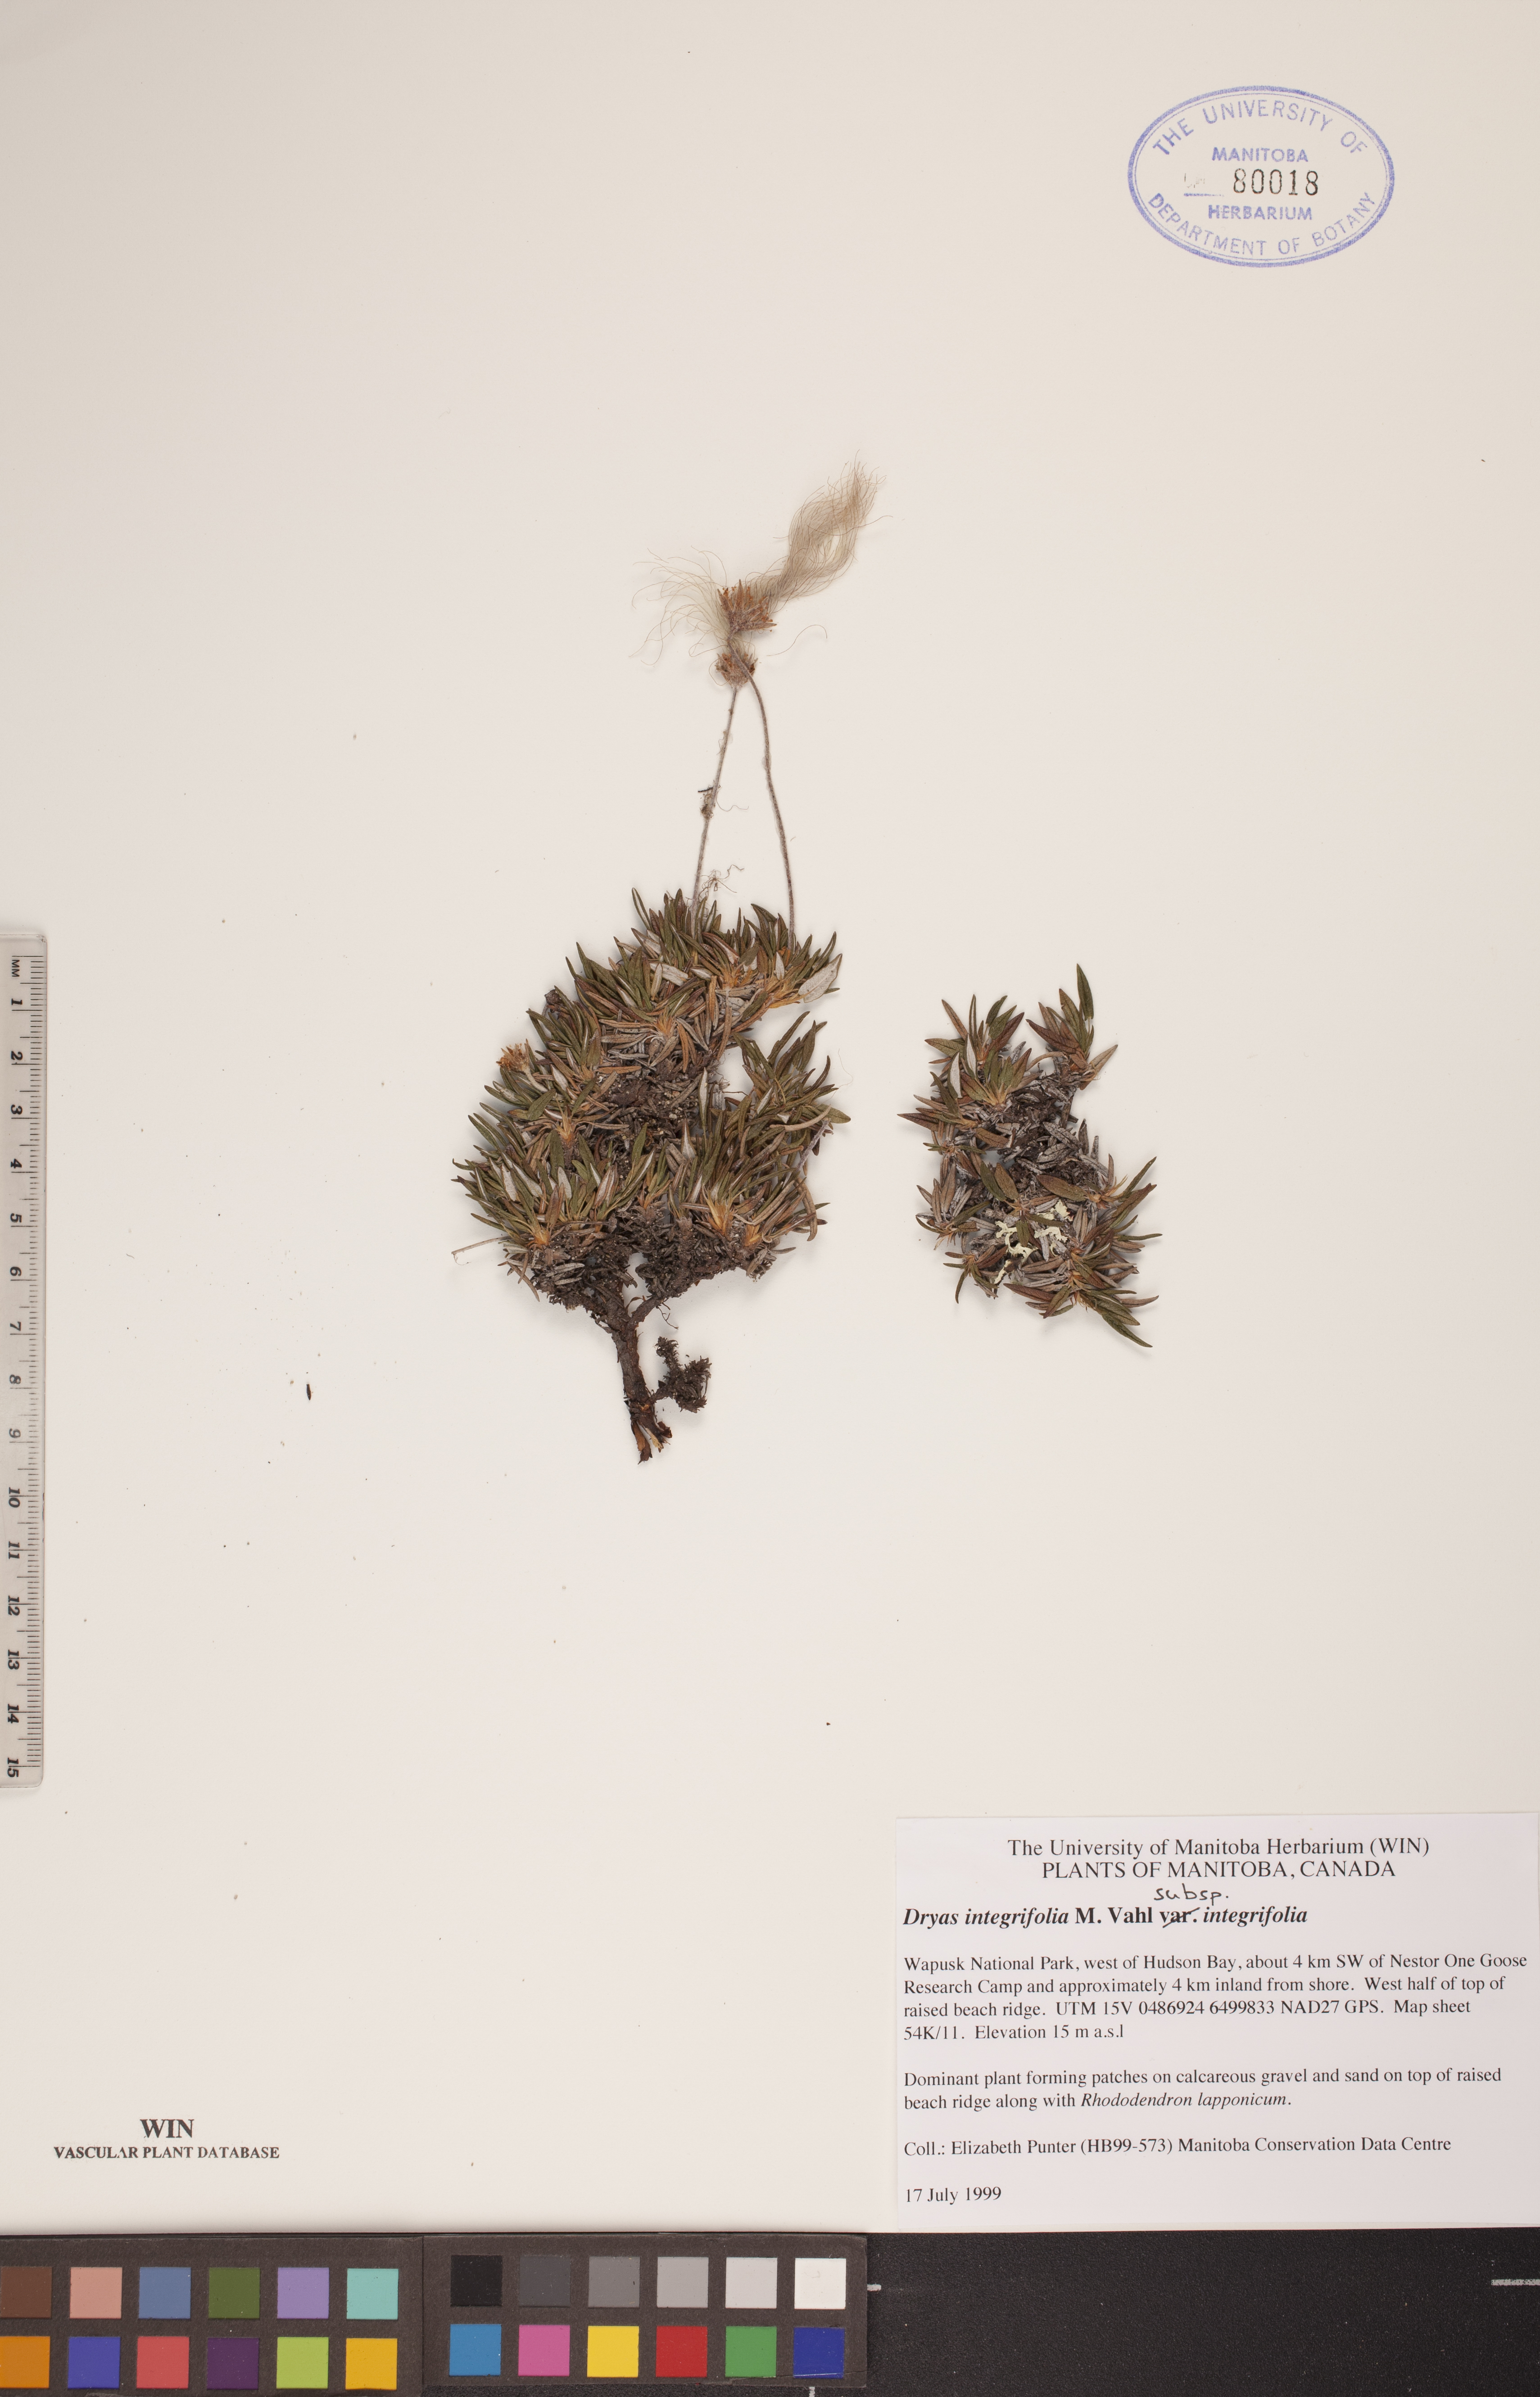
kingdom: Plantae
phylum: Tracheophyta
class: Magnoliopsida
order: Rosales
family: Rosaceae
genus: Dryas
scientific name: Dryas integrifolia
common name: Entire-leaved mountain avens
